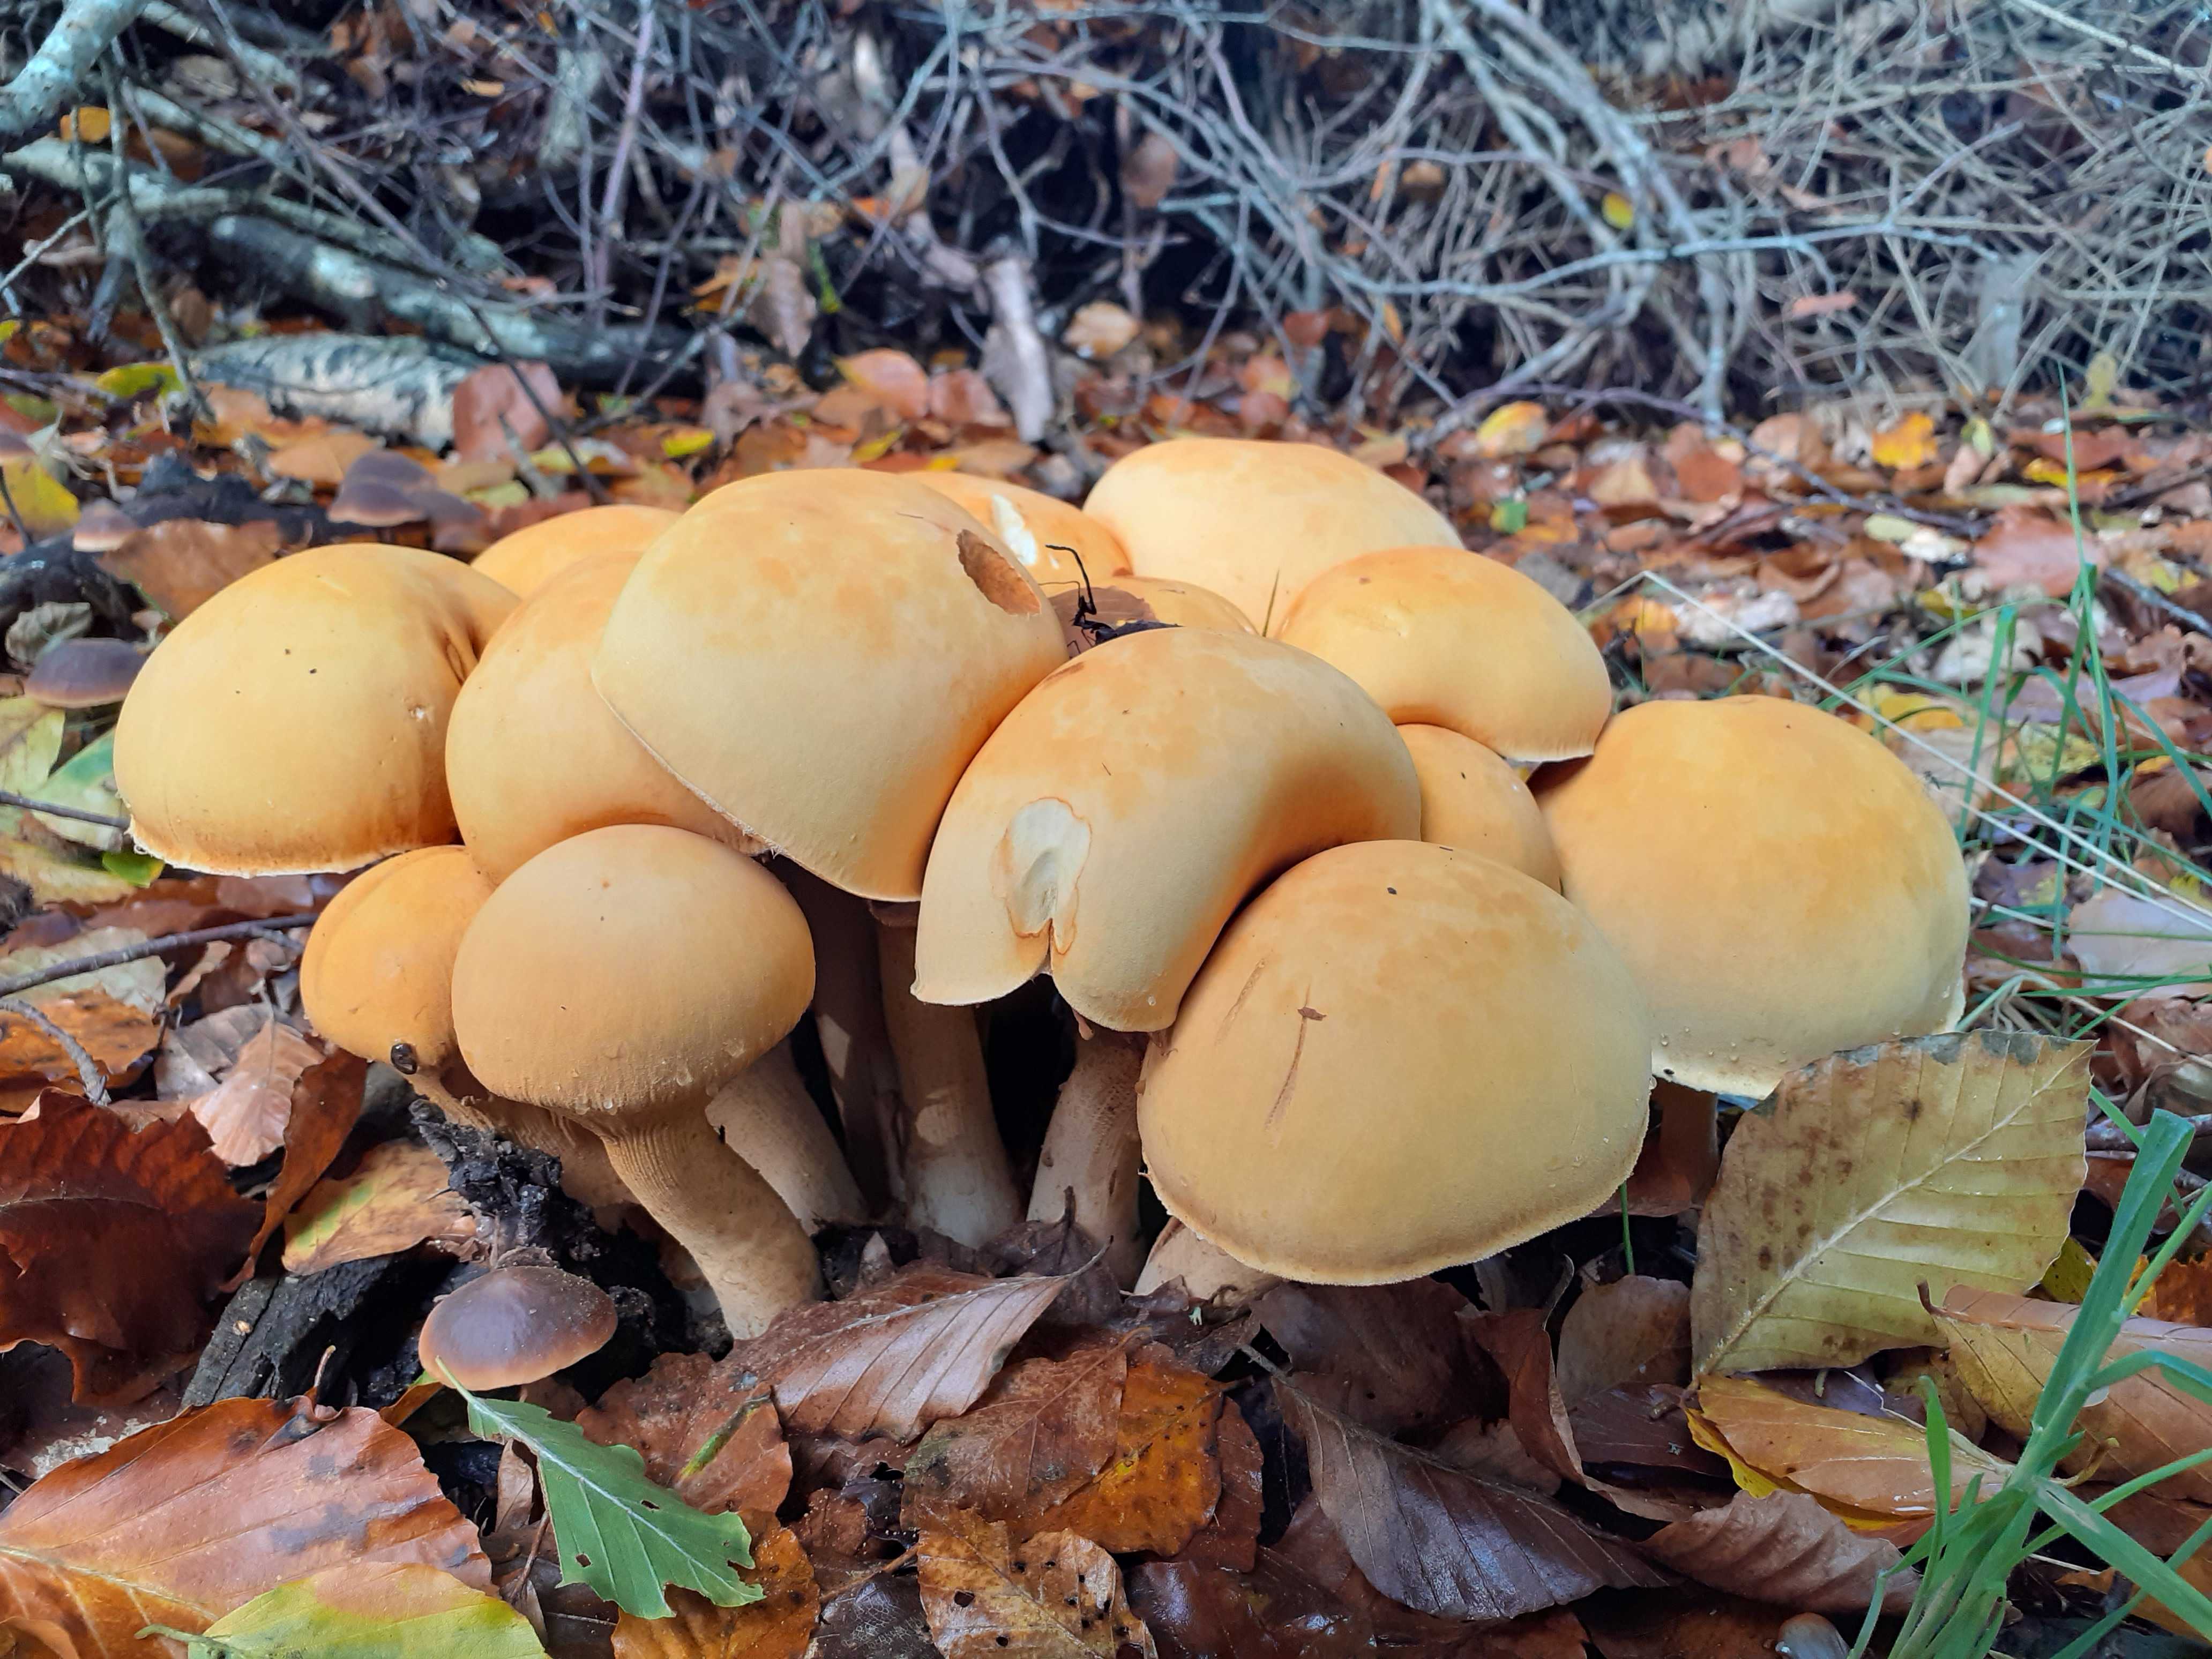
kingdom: Fungi
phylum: Basidiomycota
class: Agaricomycetes
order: Agaricales
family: Tricholomataceae
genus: Phaeolepiota
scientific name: Phaeolepiota aurea
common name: gyldenhat
